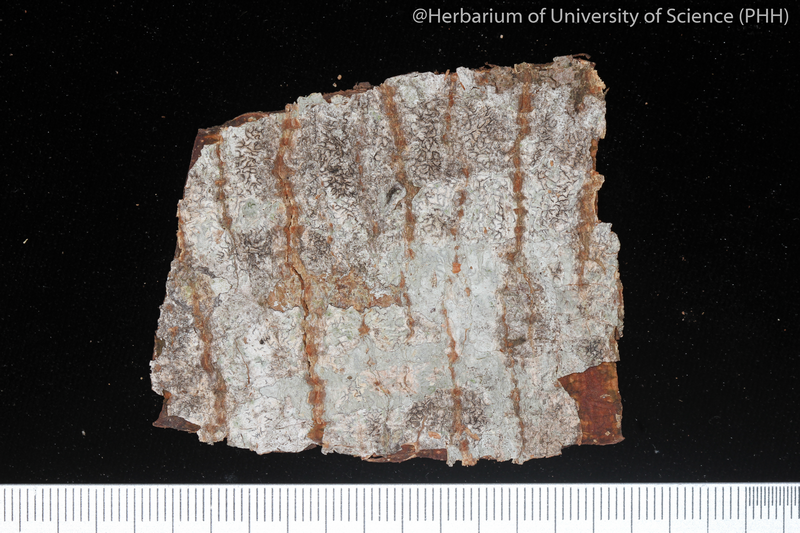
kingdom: Fungi
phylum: Ascomycota
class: Lecanoromycetes
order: Ostropales
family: Graphidaceae
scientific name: Graphidaceae
